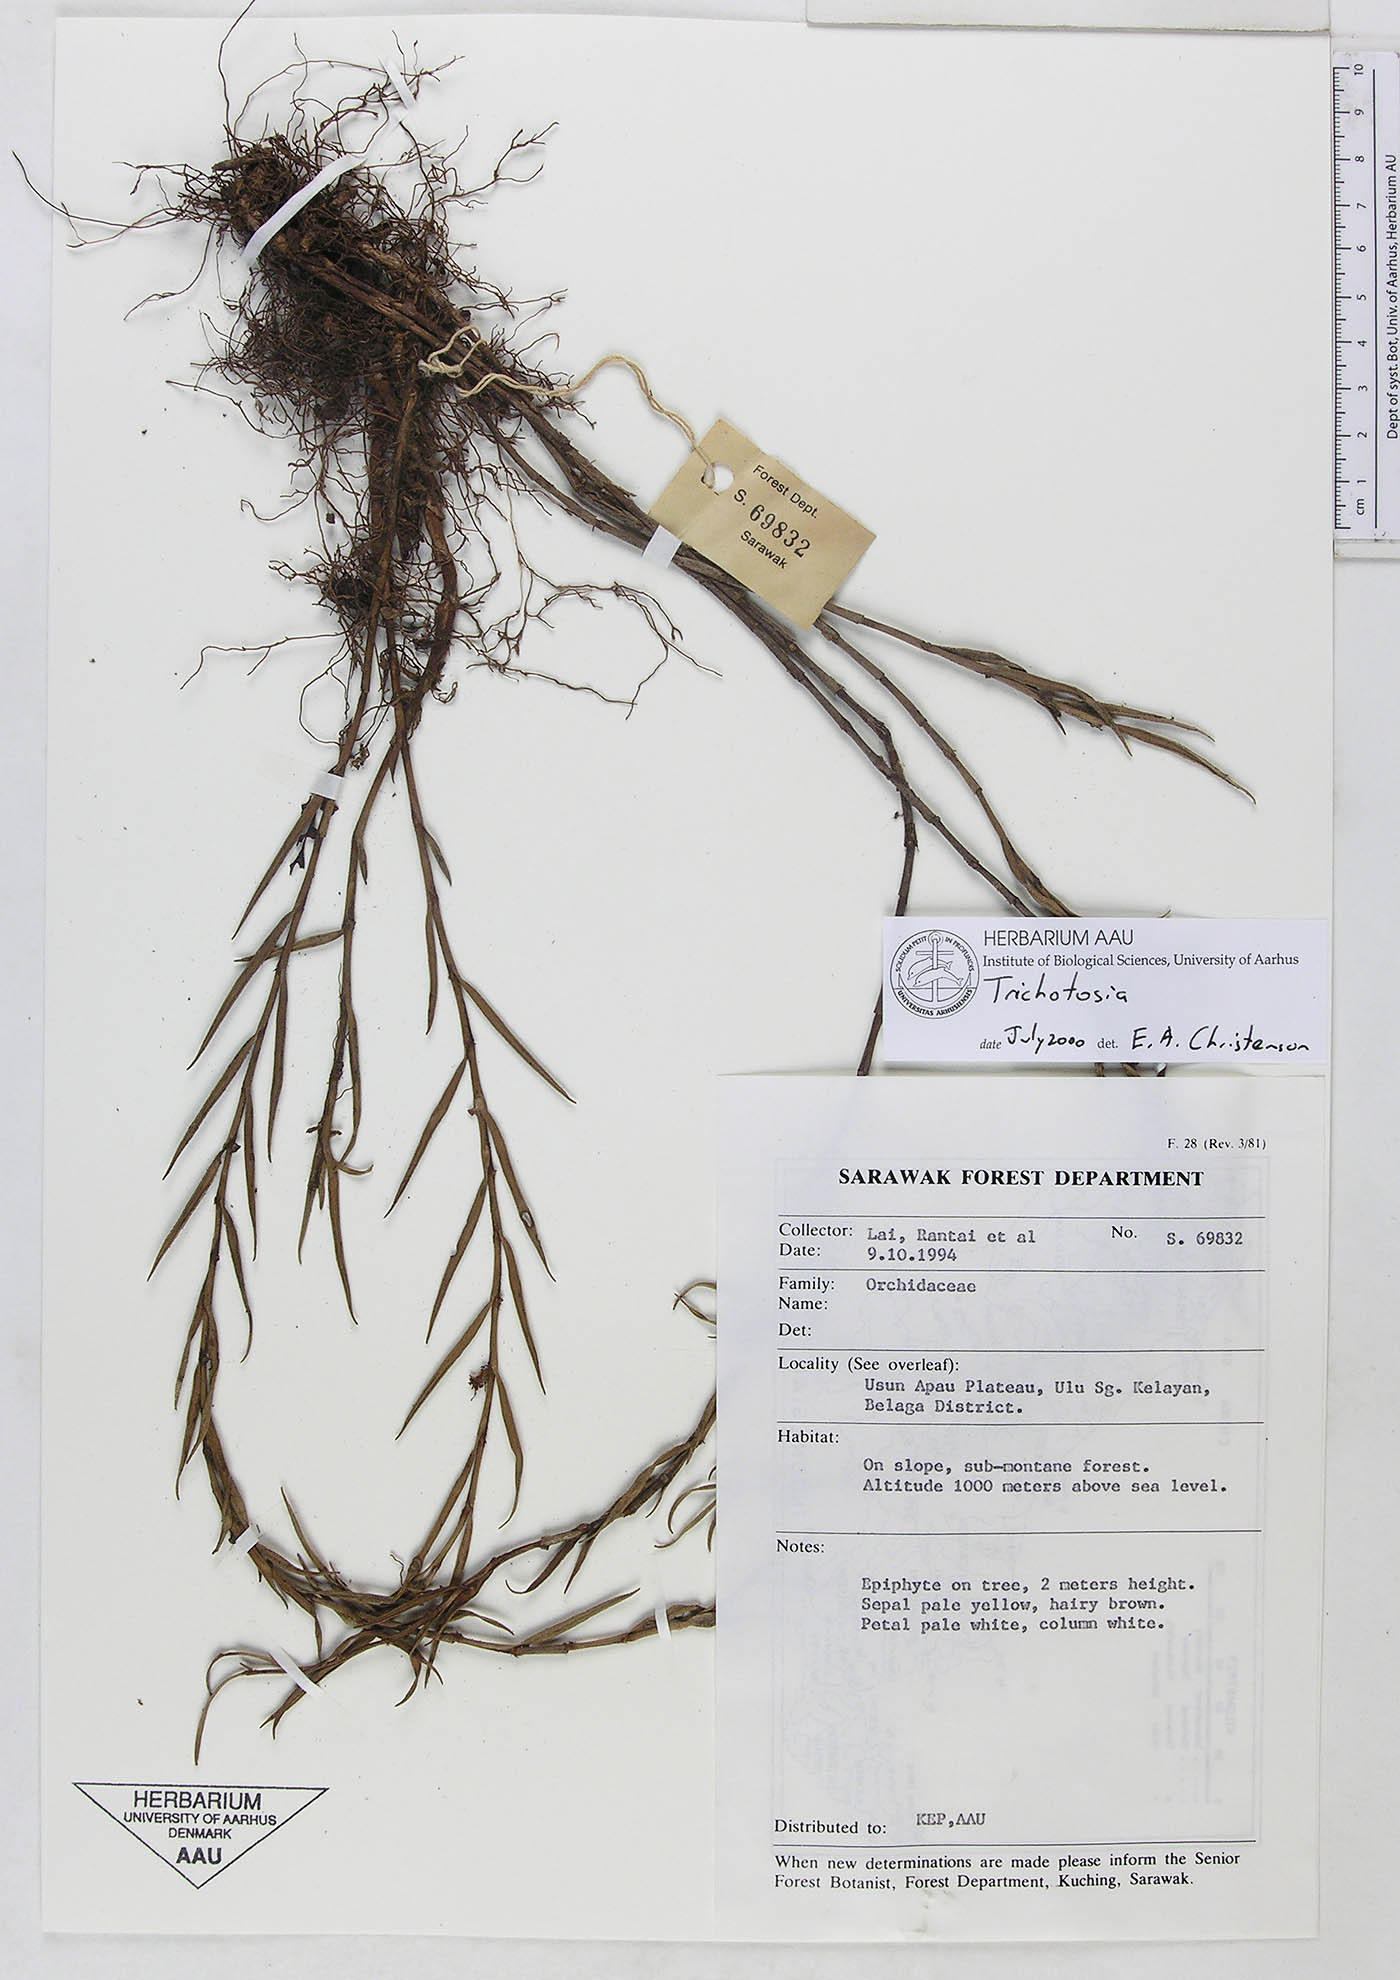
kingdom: Plantae
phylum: Tracheophyta
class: Liliopsida
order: Asparagales
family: Orchidaceae
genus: Trichotosia
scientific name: Trichotosia
